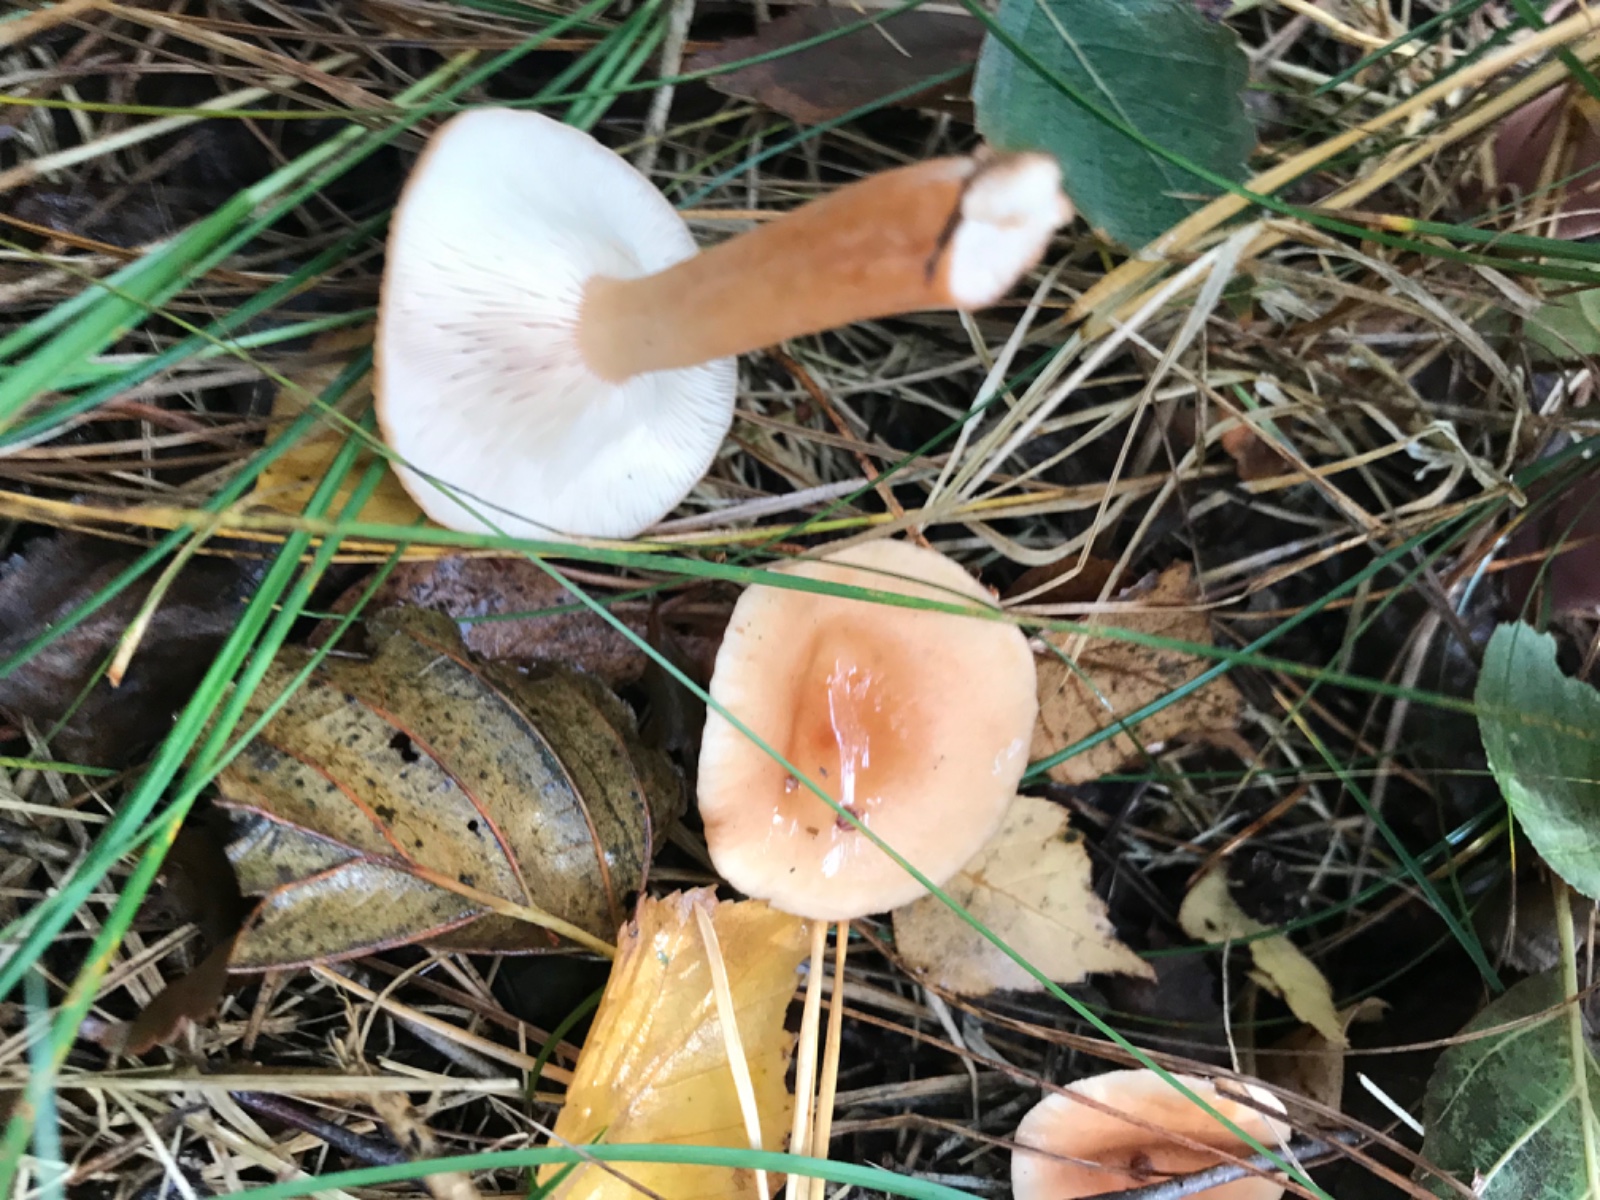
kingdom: Fungi
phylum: Basidiomycota
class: Agaricomycetes
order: Russulales
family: Russulaceae
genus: Lactarius
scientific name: Lactarius tabidus
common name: rynket mælkehat
